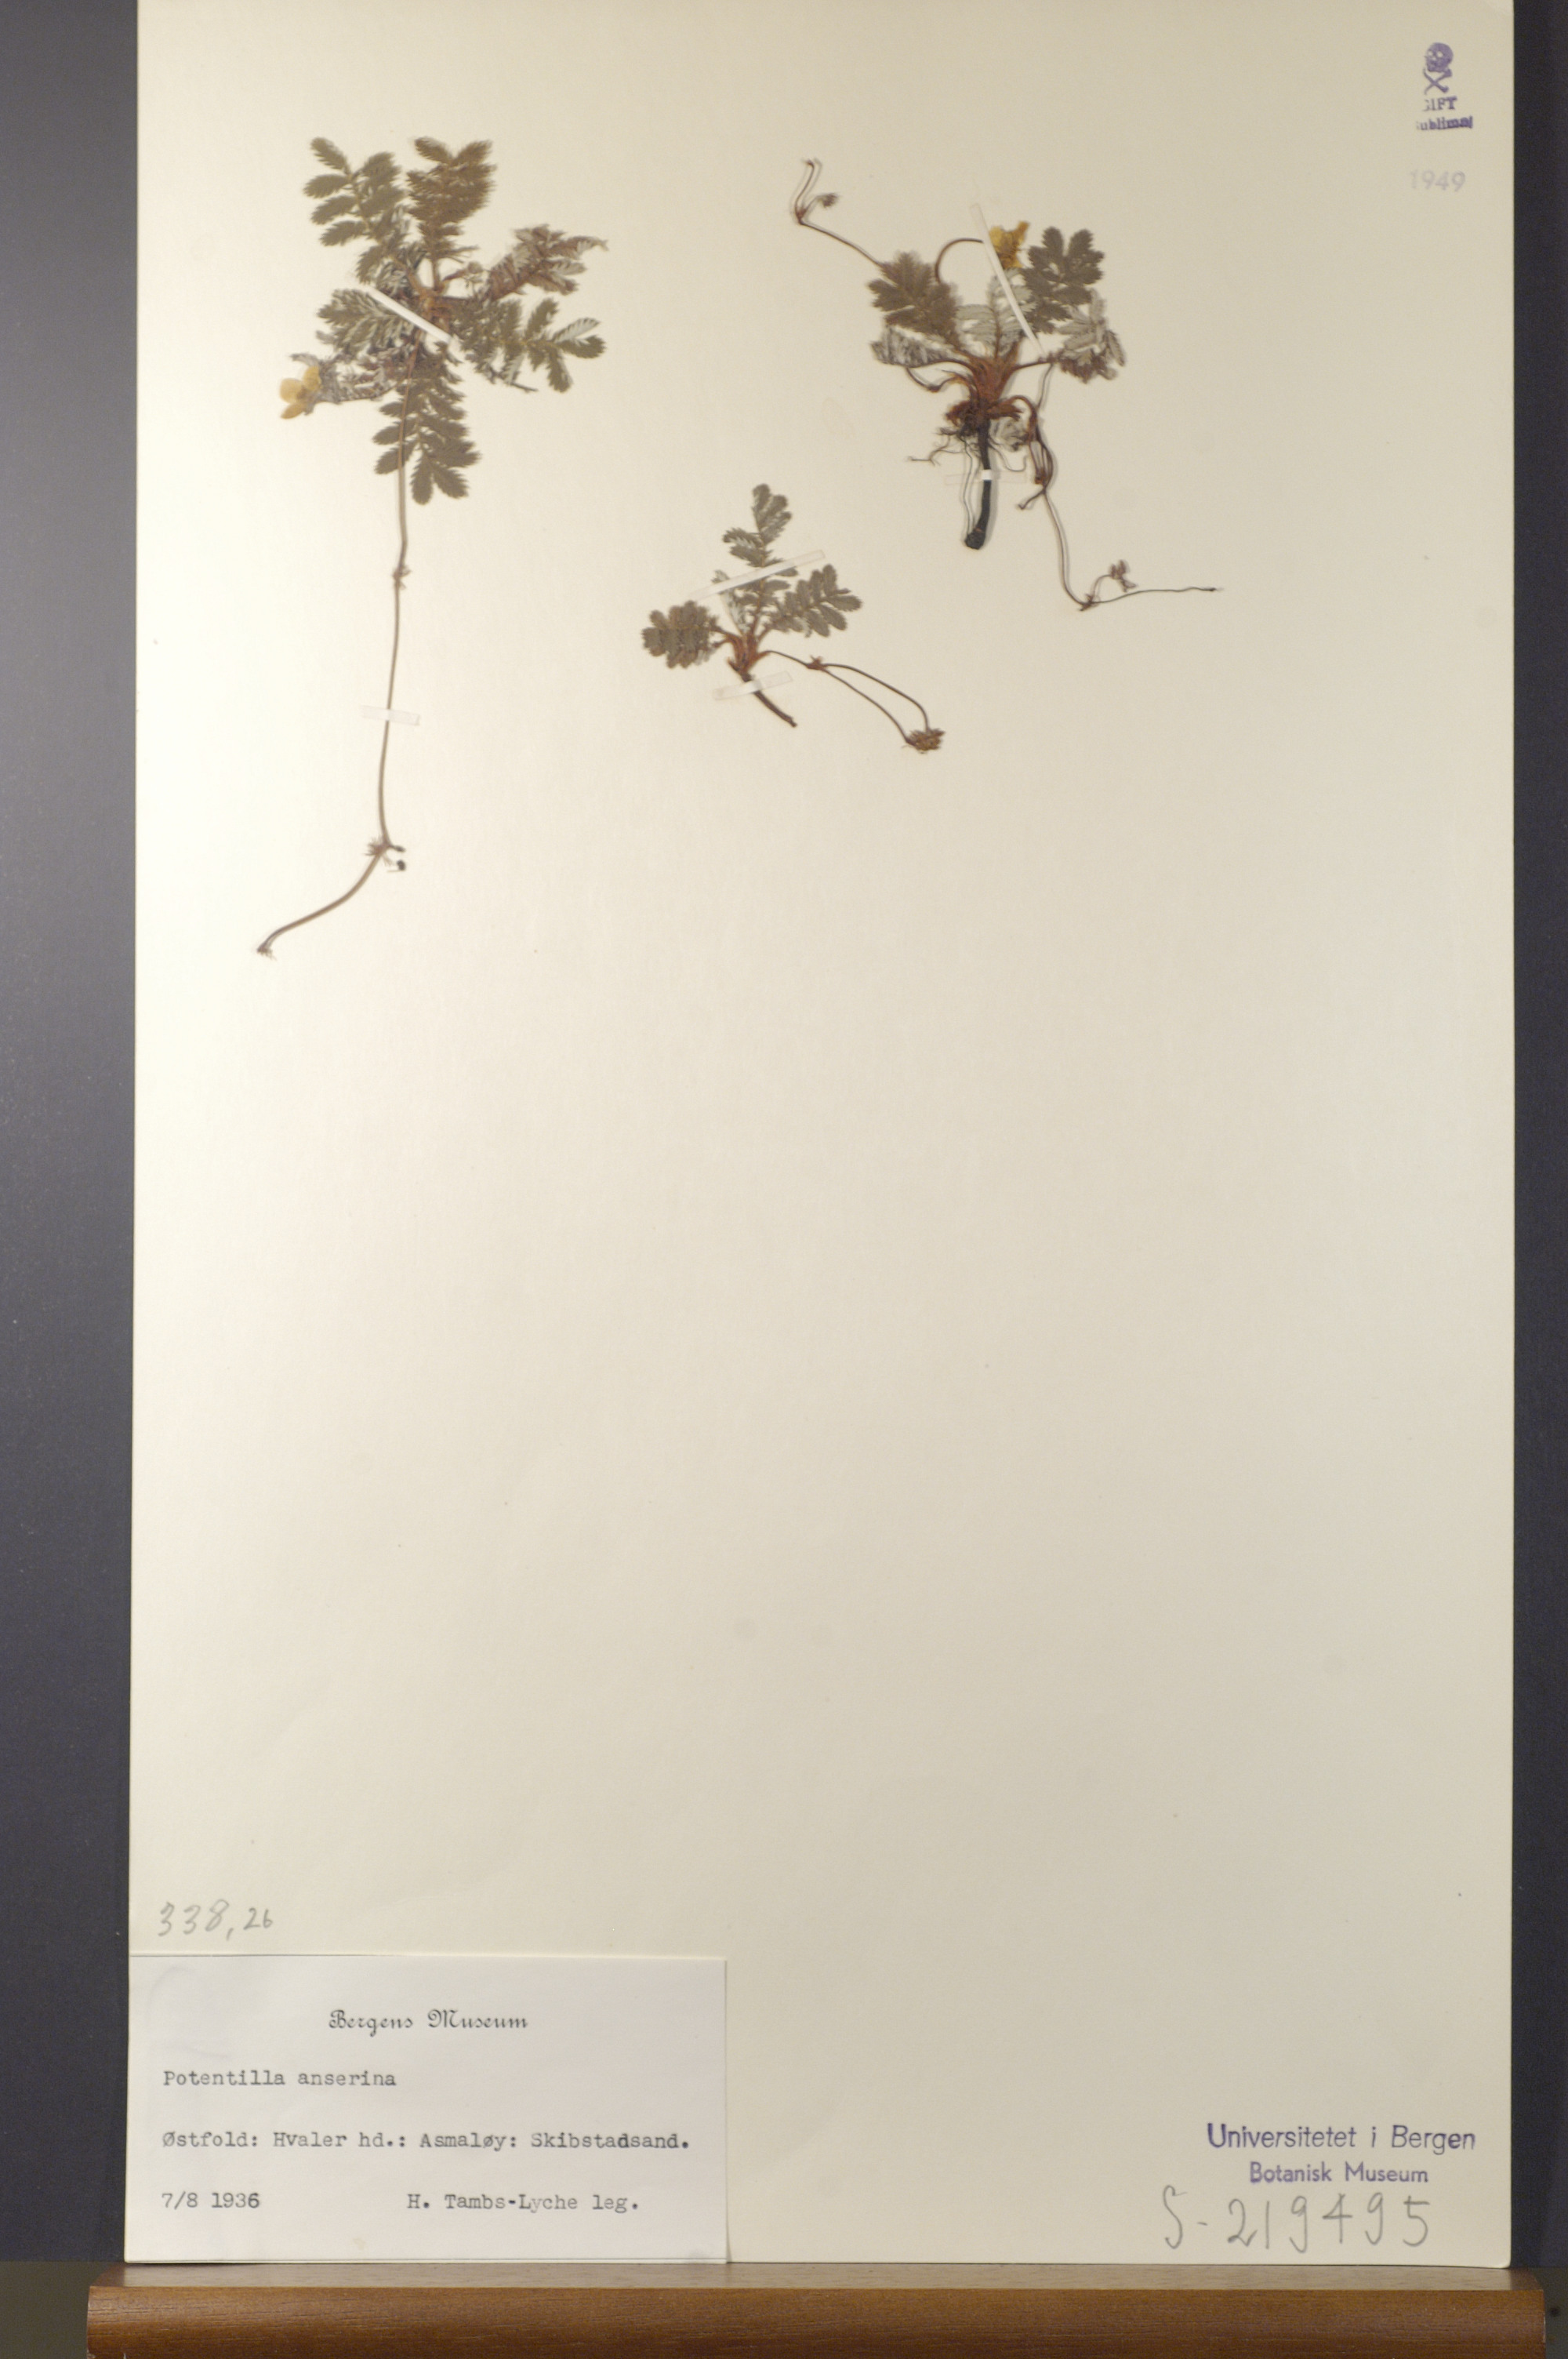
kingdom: Plantae
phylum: Tracheophyta
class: Magnoliopsida
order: Rosales
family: Rosaceae
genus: Argentina
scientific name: Argentina anserina
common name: Common silverweed
